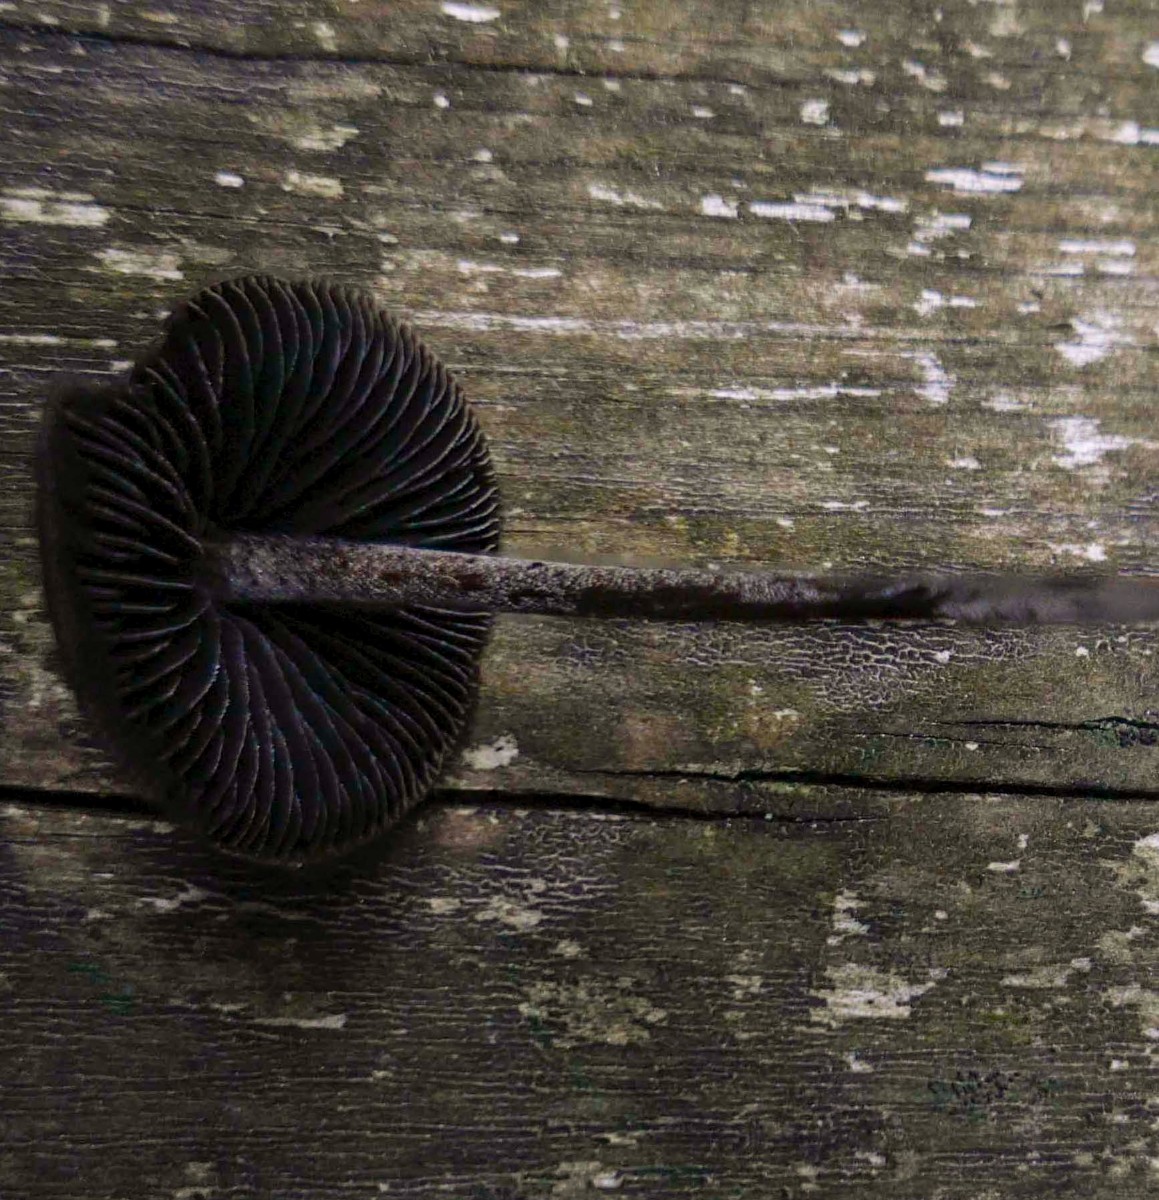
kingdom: Fungi
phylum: Basidiomycota
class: Agaricomycetes
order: Agaricales
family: Bolbitiaceae
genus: Panaeolus
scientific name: Panaeolus fimicola
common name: tidlig glanshat
